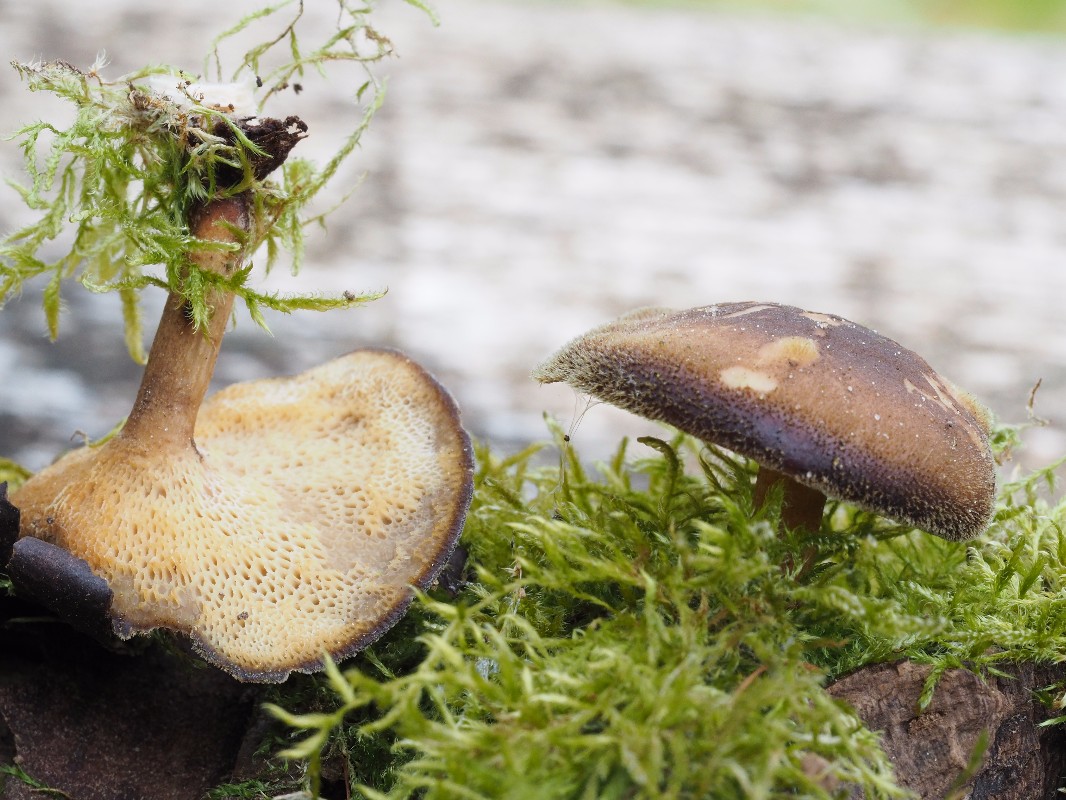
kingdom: Fungi
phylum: Basidiomycota
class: Agaricomycetes
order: Polyporales
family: Polyporaceae
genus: Lentinus
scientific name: Lentinus brumalis
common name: vinter-stilkporesvamp
